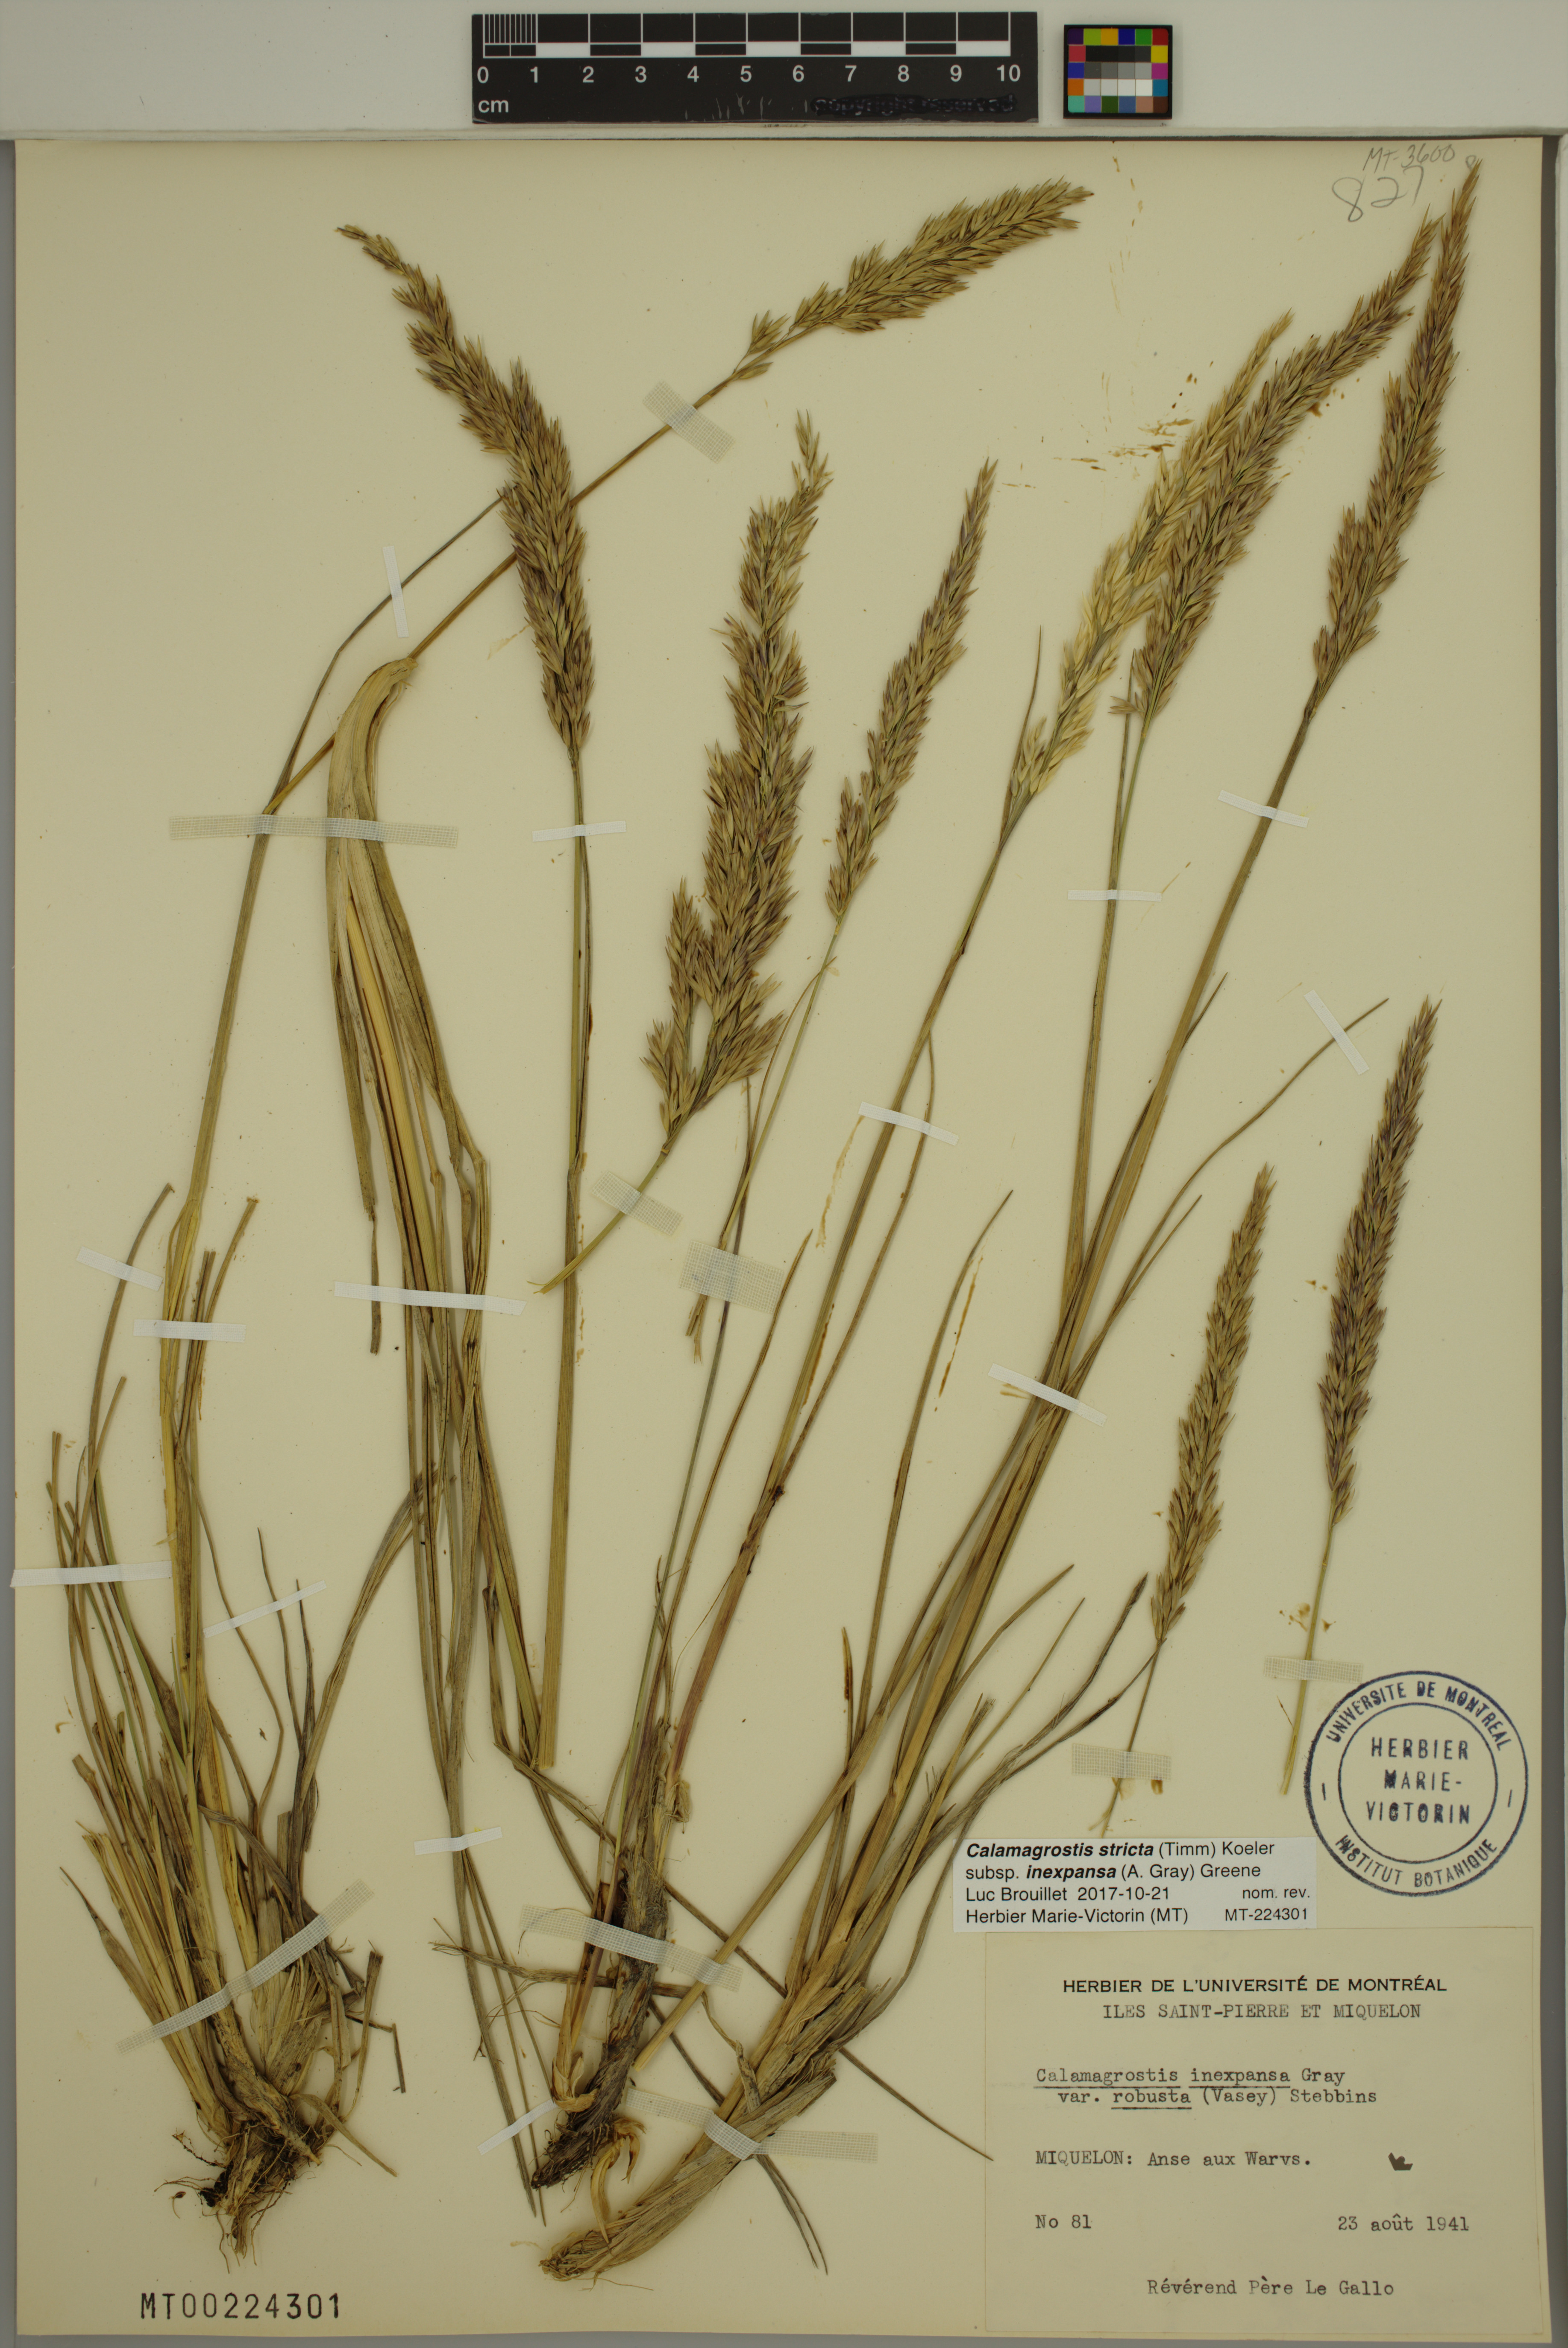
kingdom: Plantae
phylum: Tracheophyta
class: Liliopsida
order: Poales
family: Poaceae
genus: Calamagrostis
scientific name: Calamagrostis inexpansa
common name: Northern reedgrass
